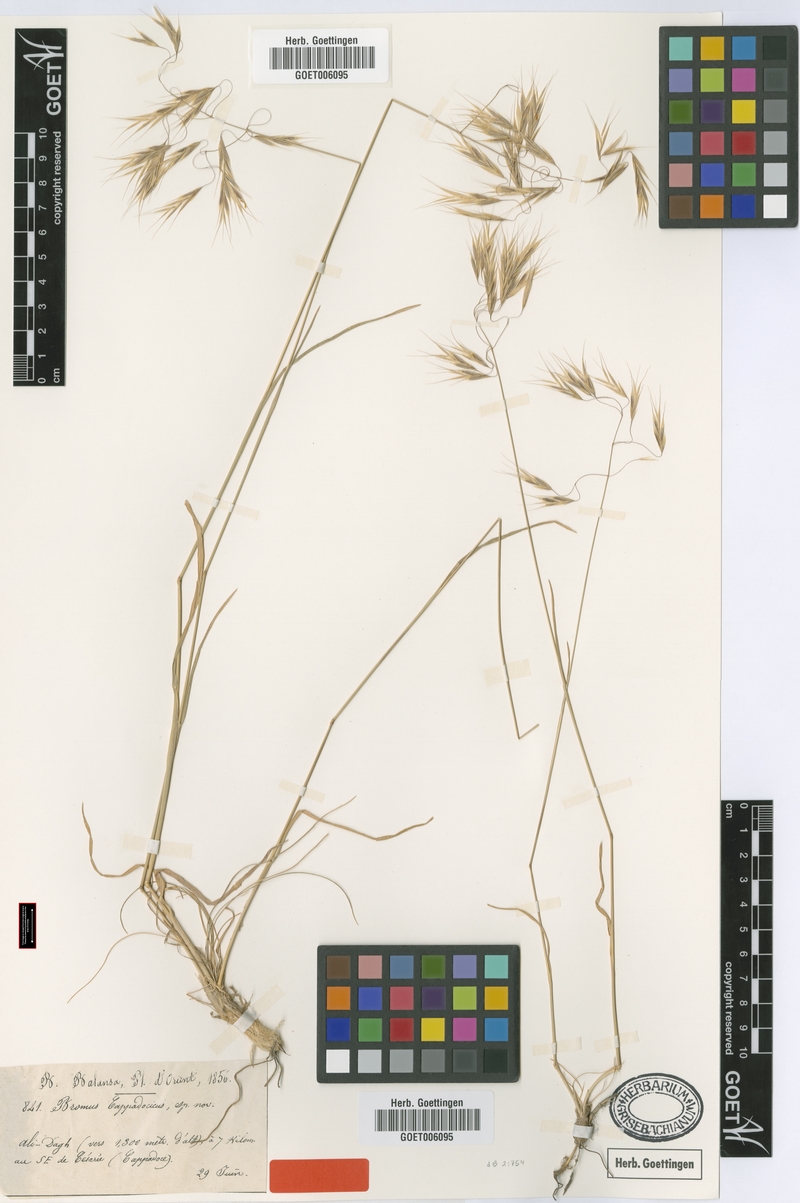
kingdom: Plantae
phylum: Tracheophyta
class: Liliopsida
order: Poales
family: Poaceae
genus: Bromus
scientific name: Bromus sclerophyllus
